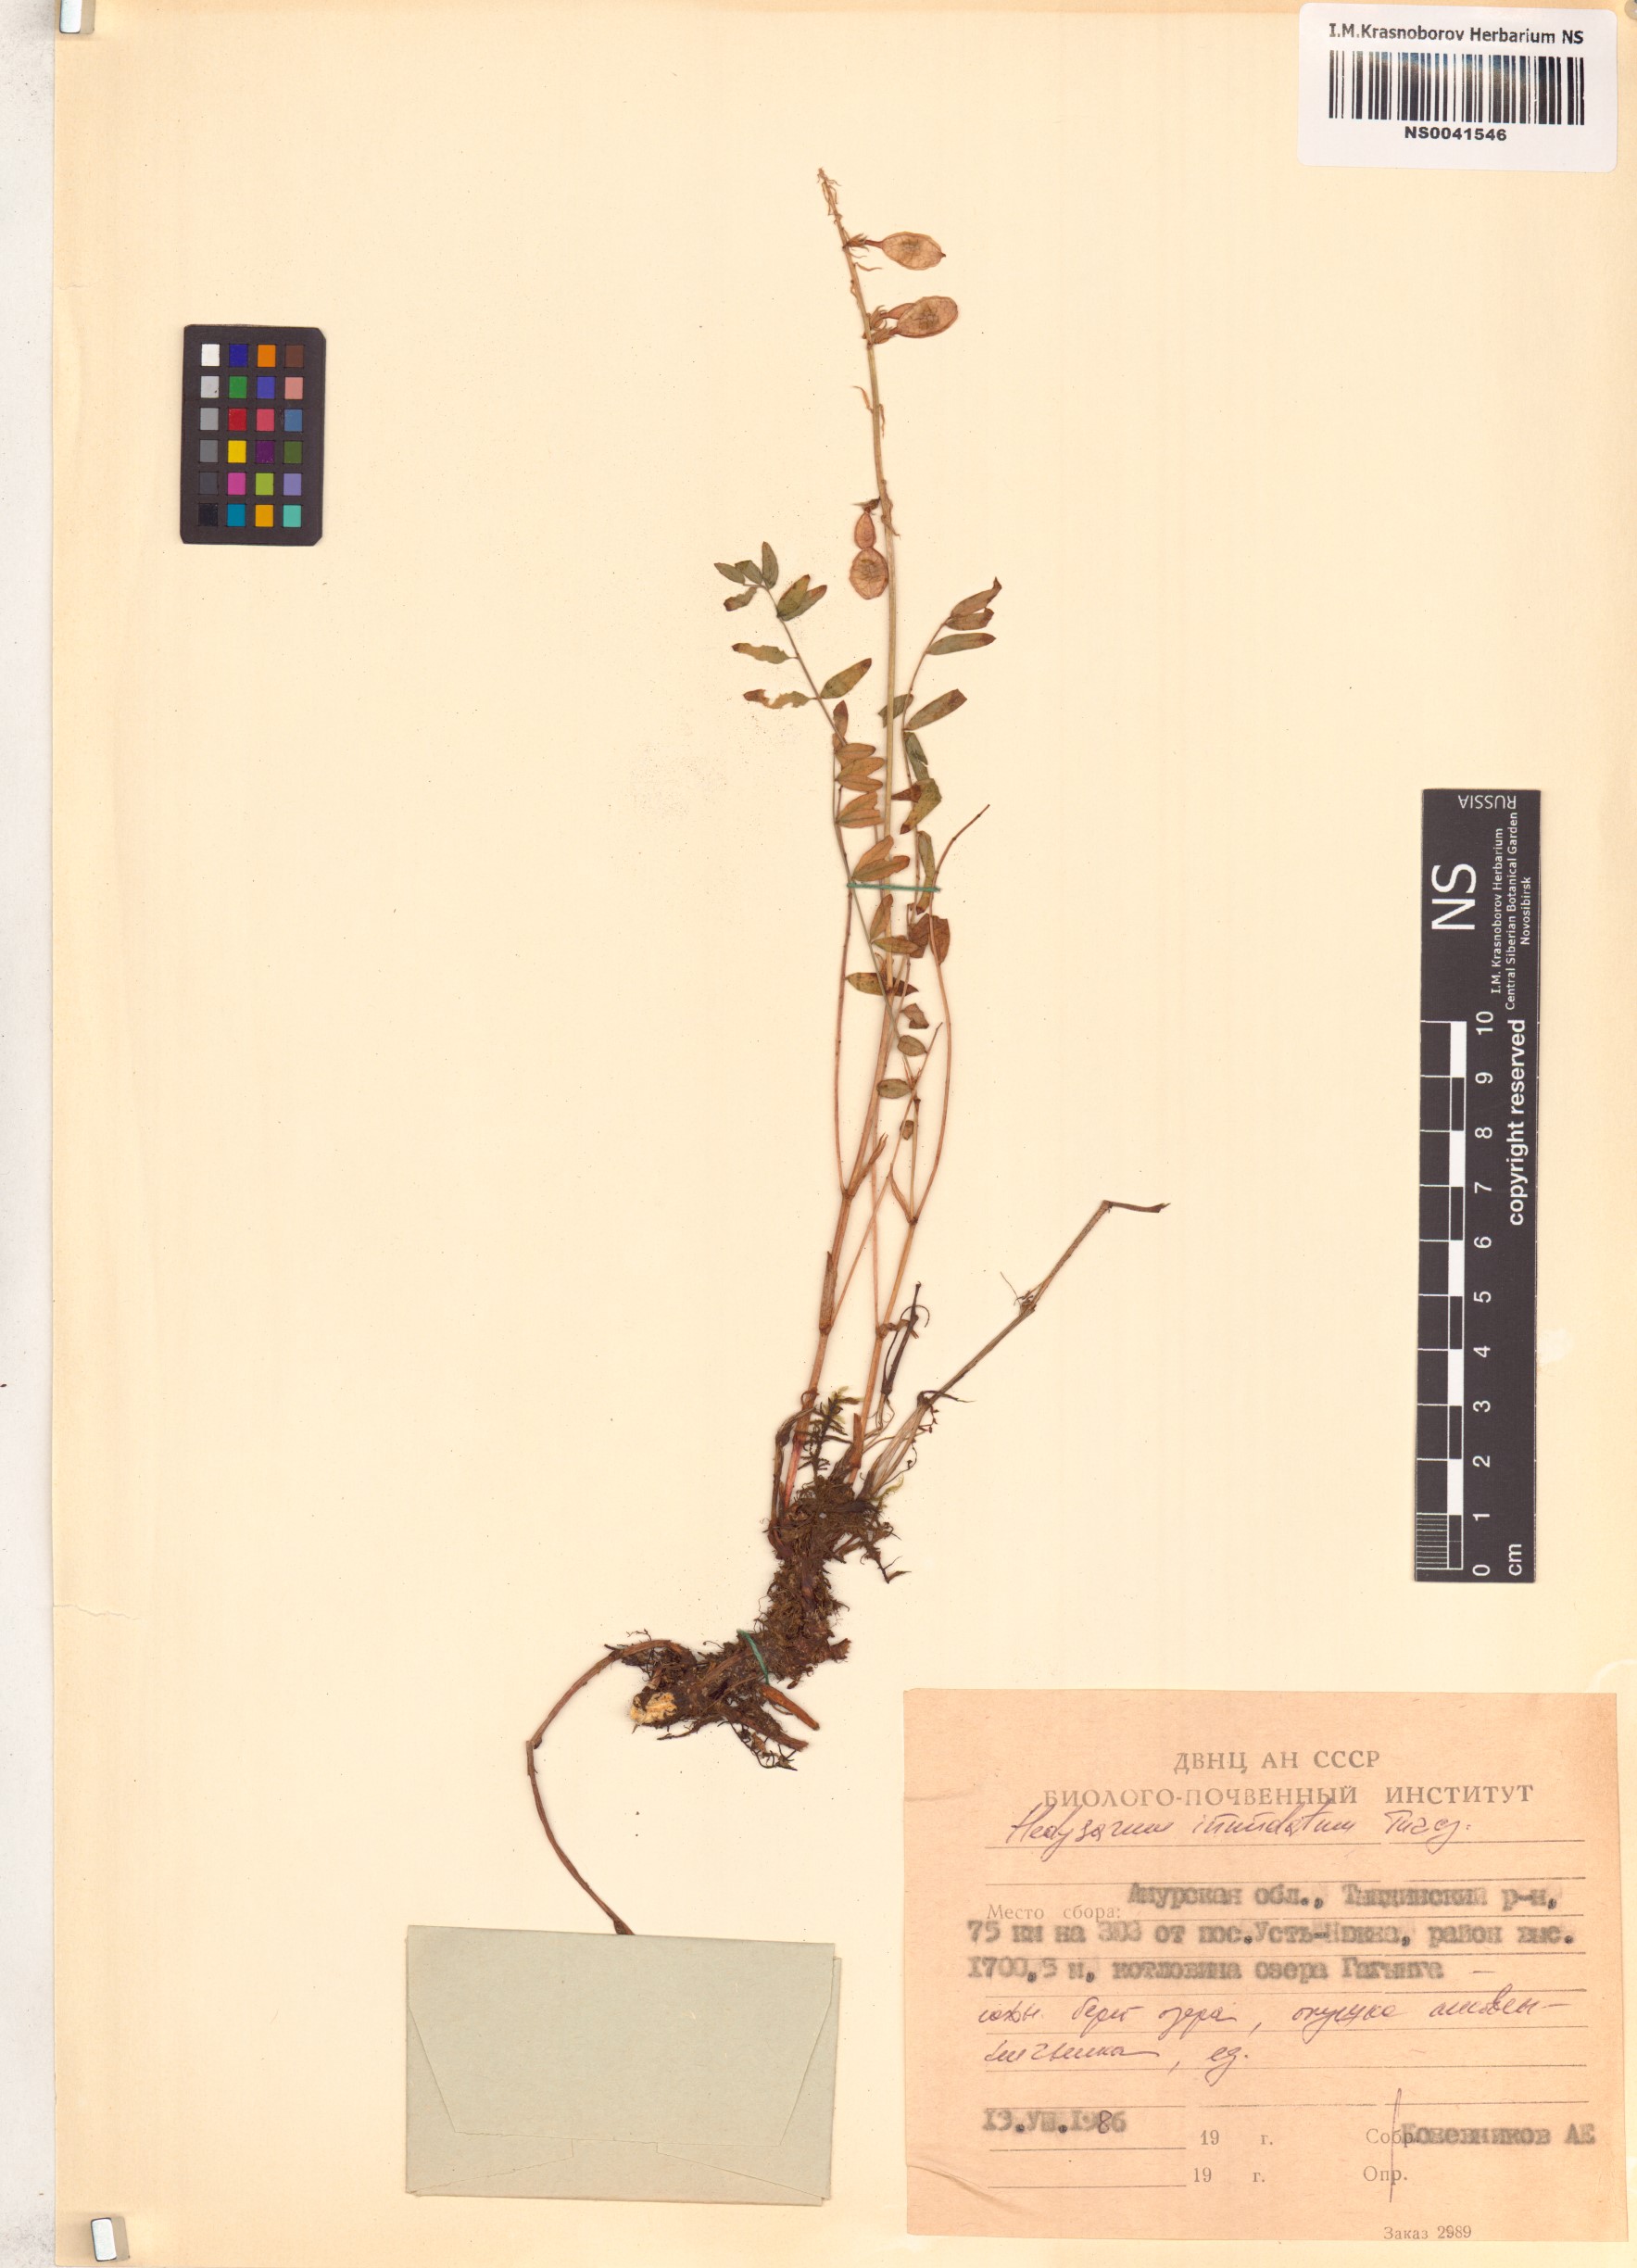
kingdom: Plantae
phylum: Tracheophyta
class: Magnoliopsida
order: Fabales
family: Fabaceae
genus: Hedysarum
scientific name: Hedysarum inundatum
